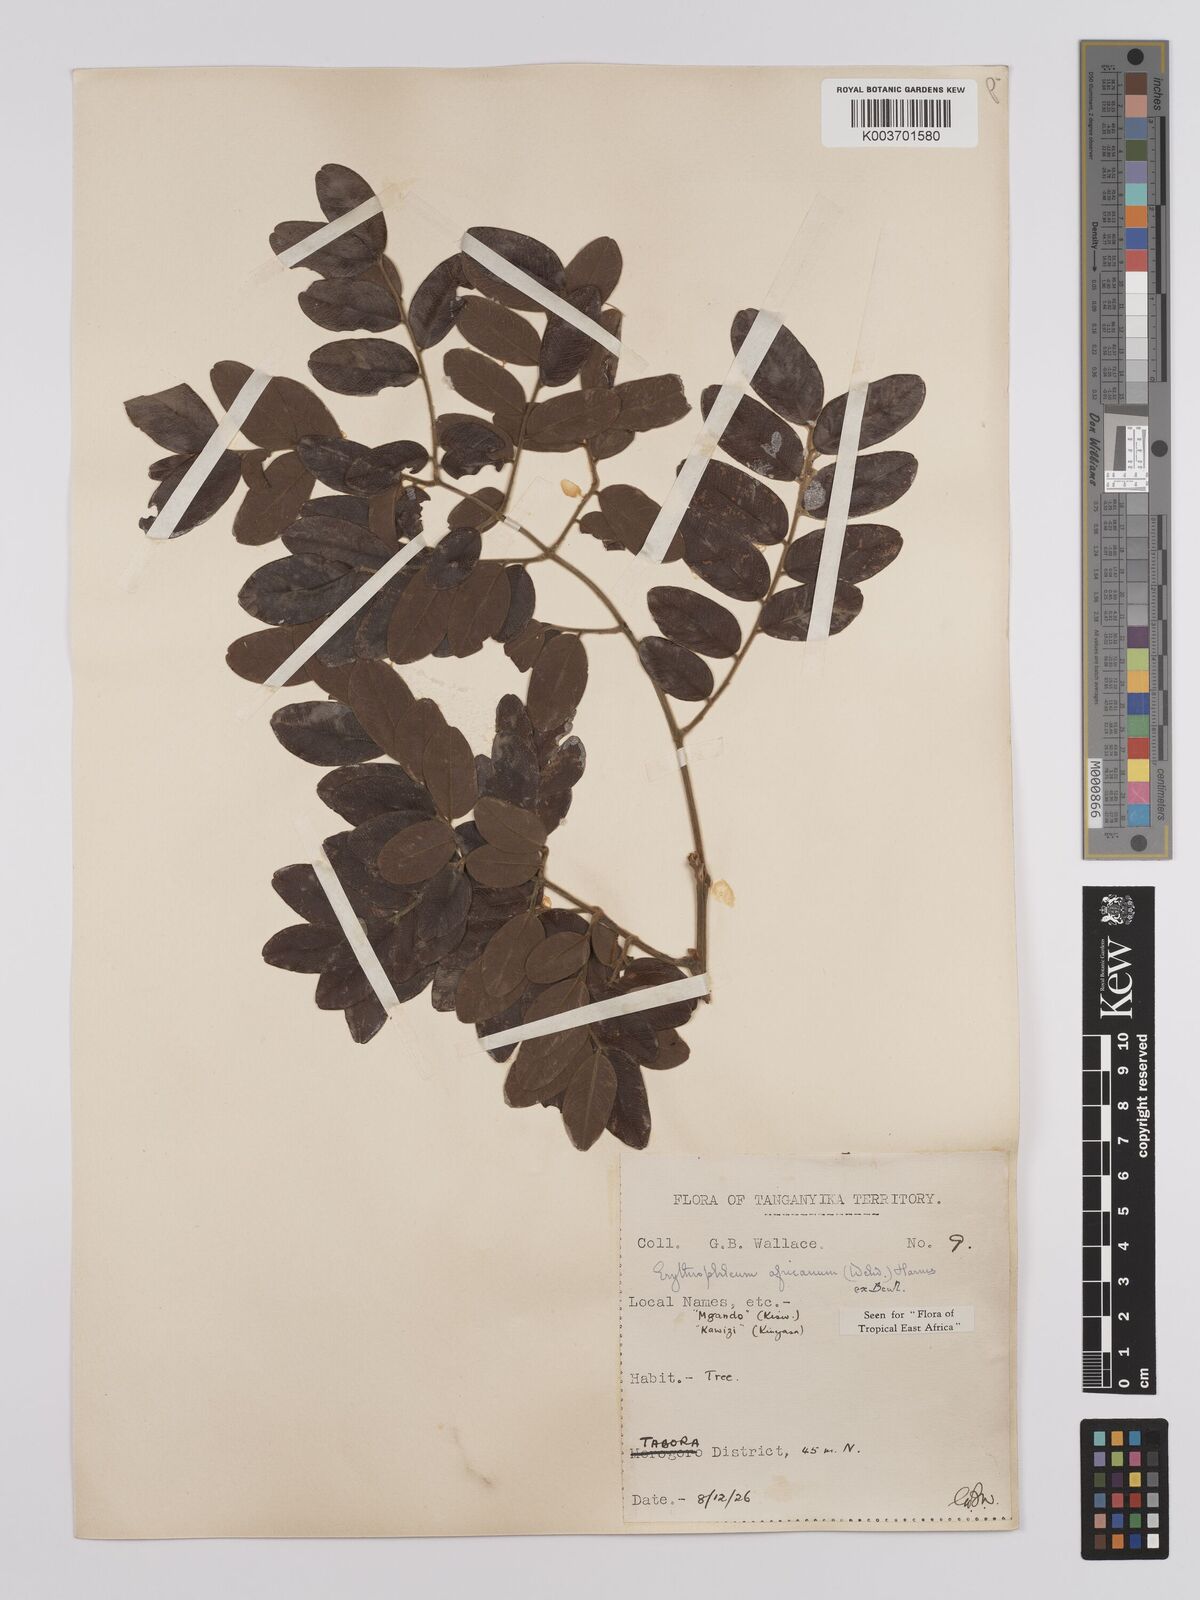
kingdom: Plantae
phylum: Tracheophyta
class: Magnoliopsida
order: Fabales
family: Fabaceae
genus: Erythrophleum
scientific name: Erythrophleum africanum
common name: African blackwood
